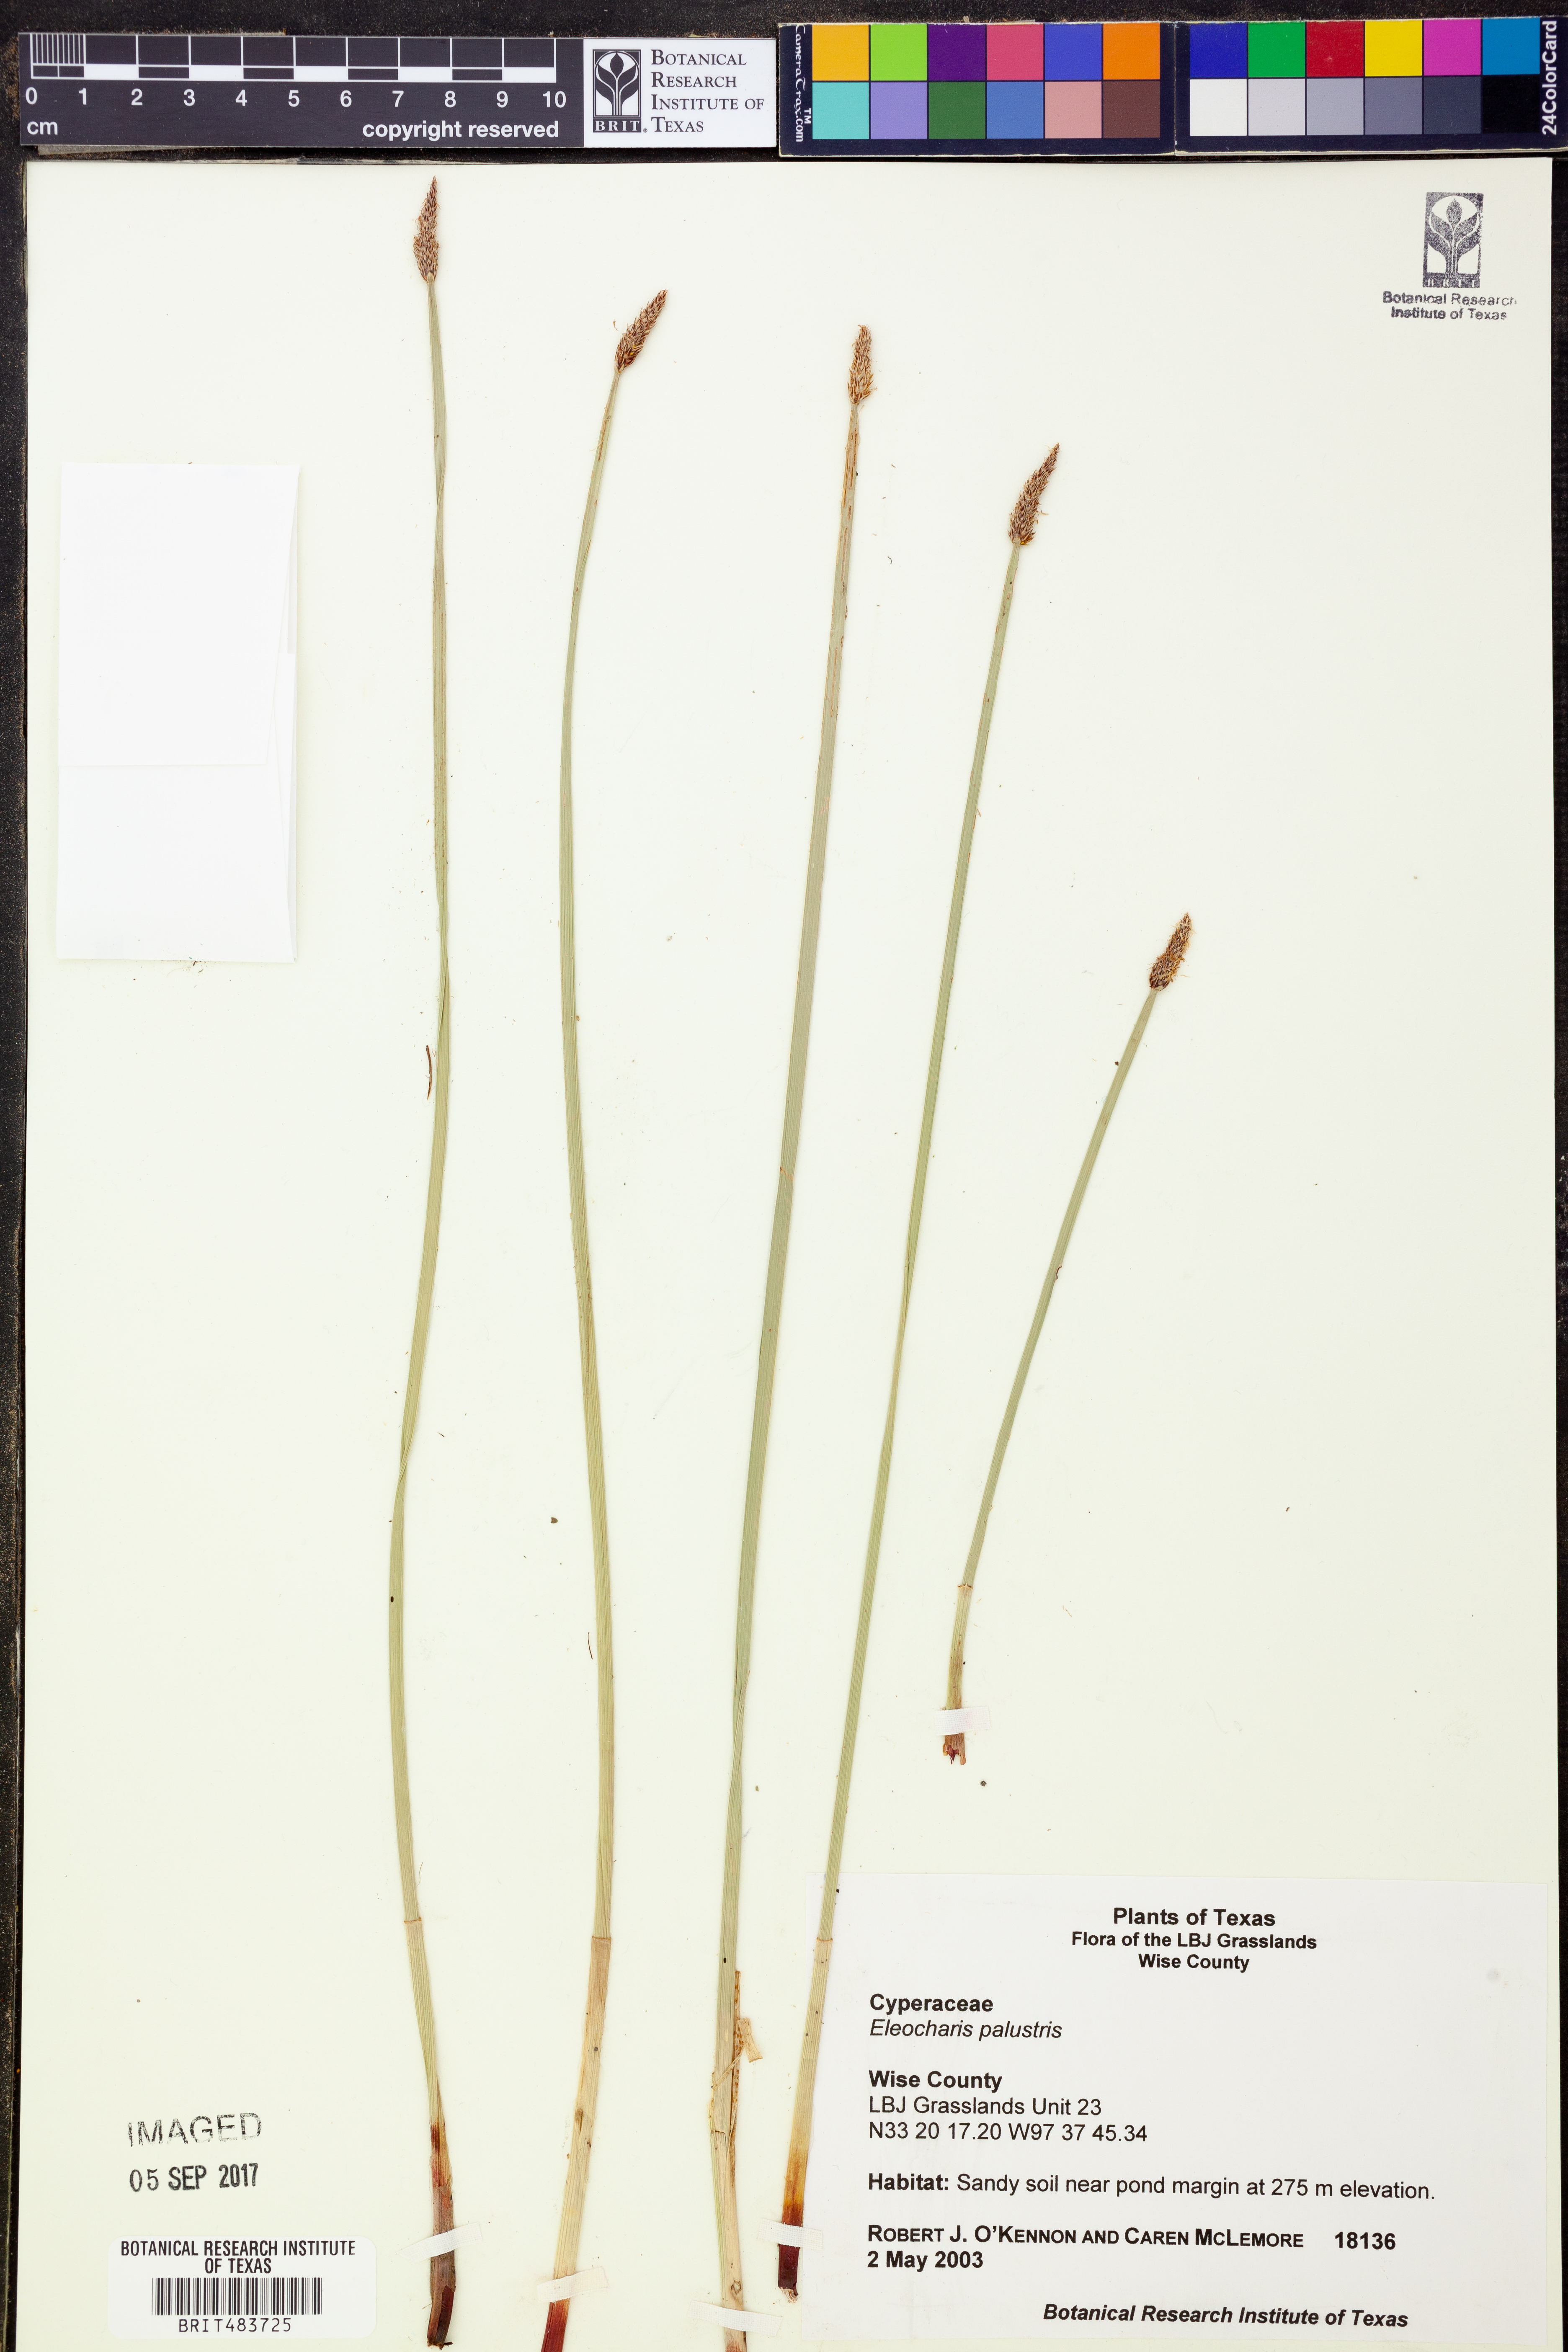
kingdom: Plantae
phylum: Tracheophyta
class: Liliopsida
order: Poales
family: Cyperaceae
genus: Eleocharis
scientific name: Eleocharis palustris
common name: Common spike-rush
